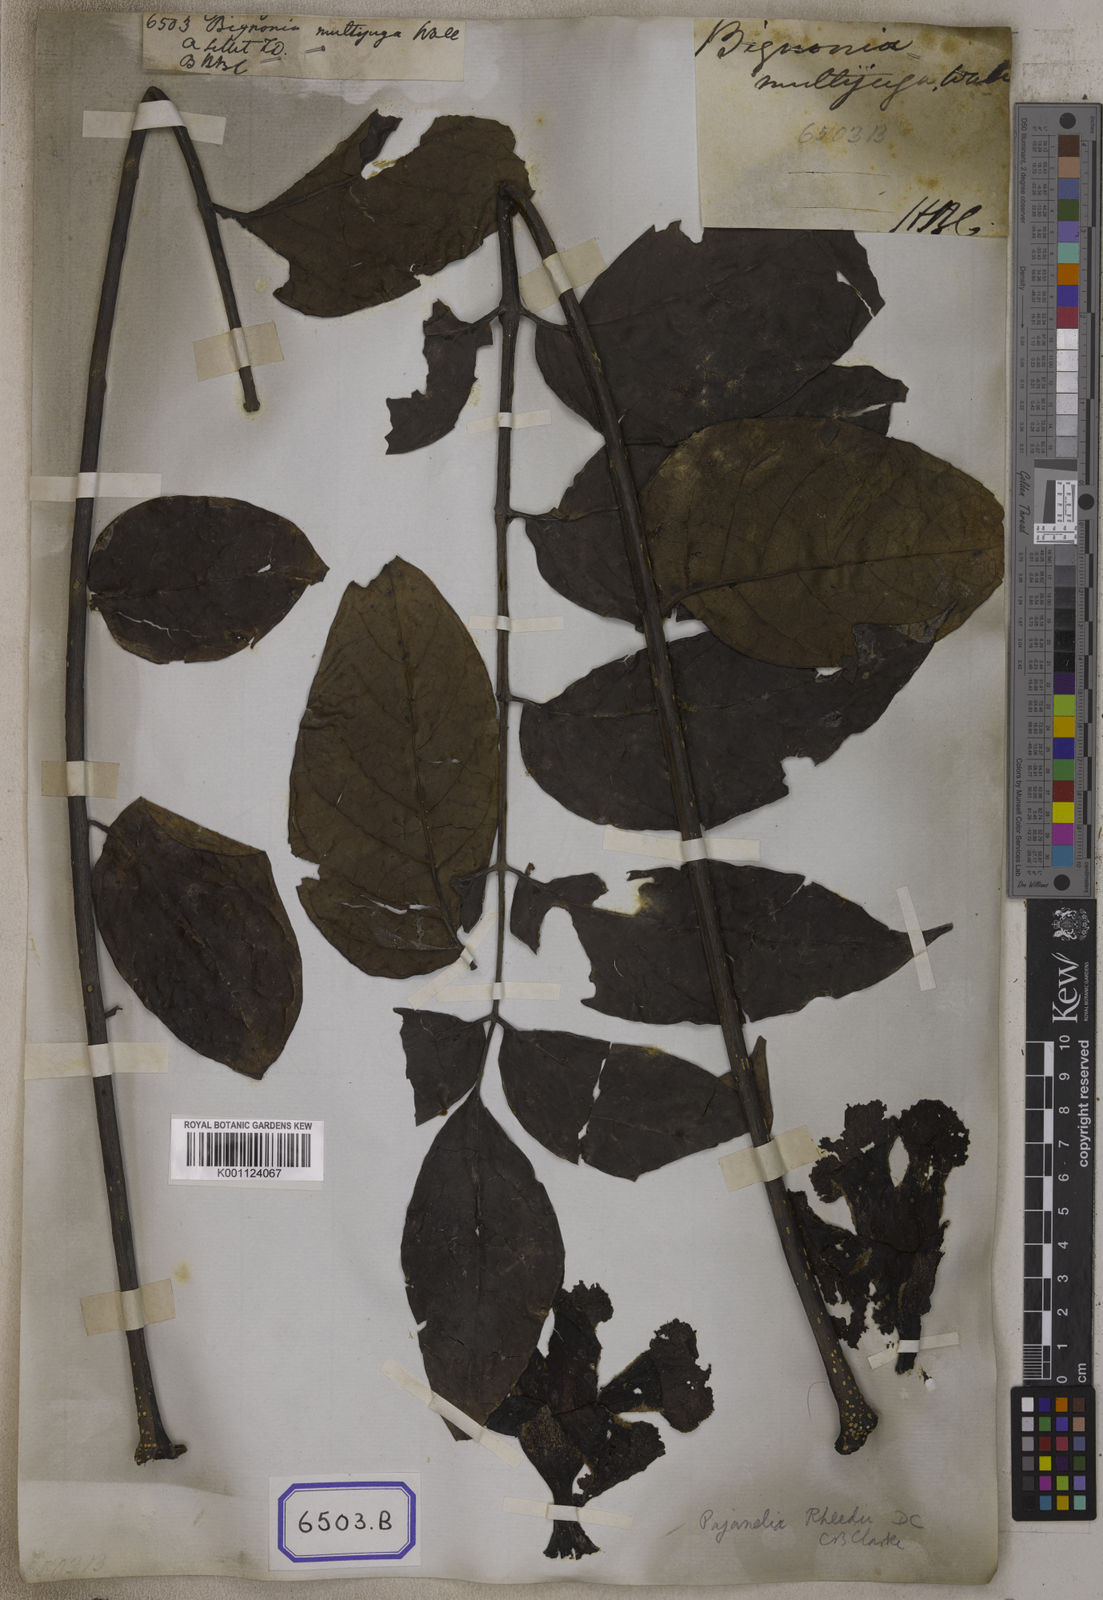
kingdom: Plantae
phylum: Tracheophyta
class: Magnoliopsida
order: Lamiales
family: Bignoniaceae
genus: Pajanelia
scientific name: Pajanelia longifolia
